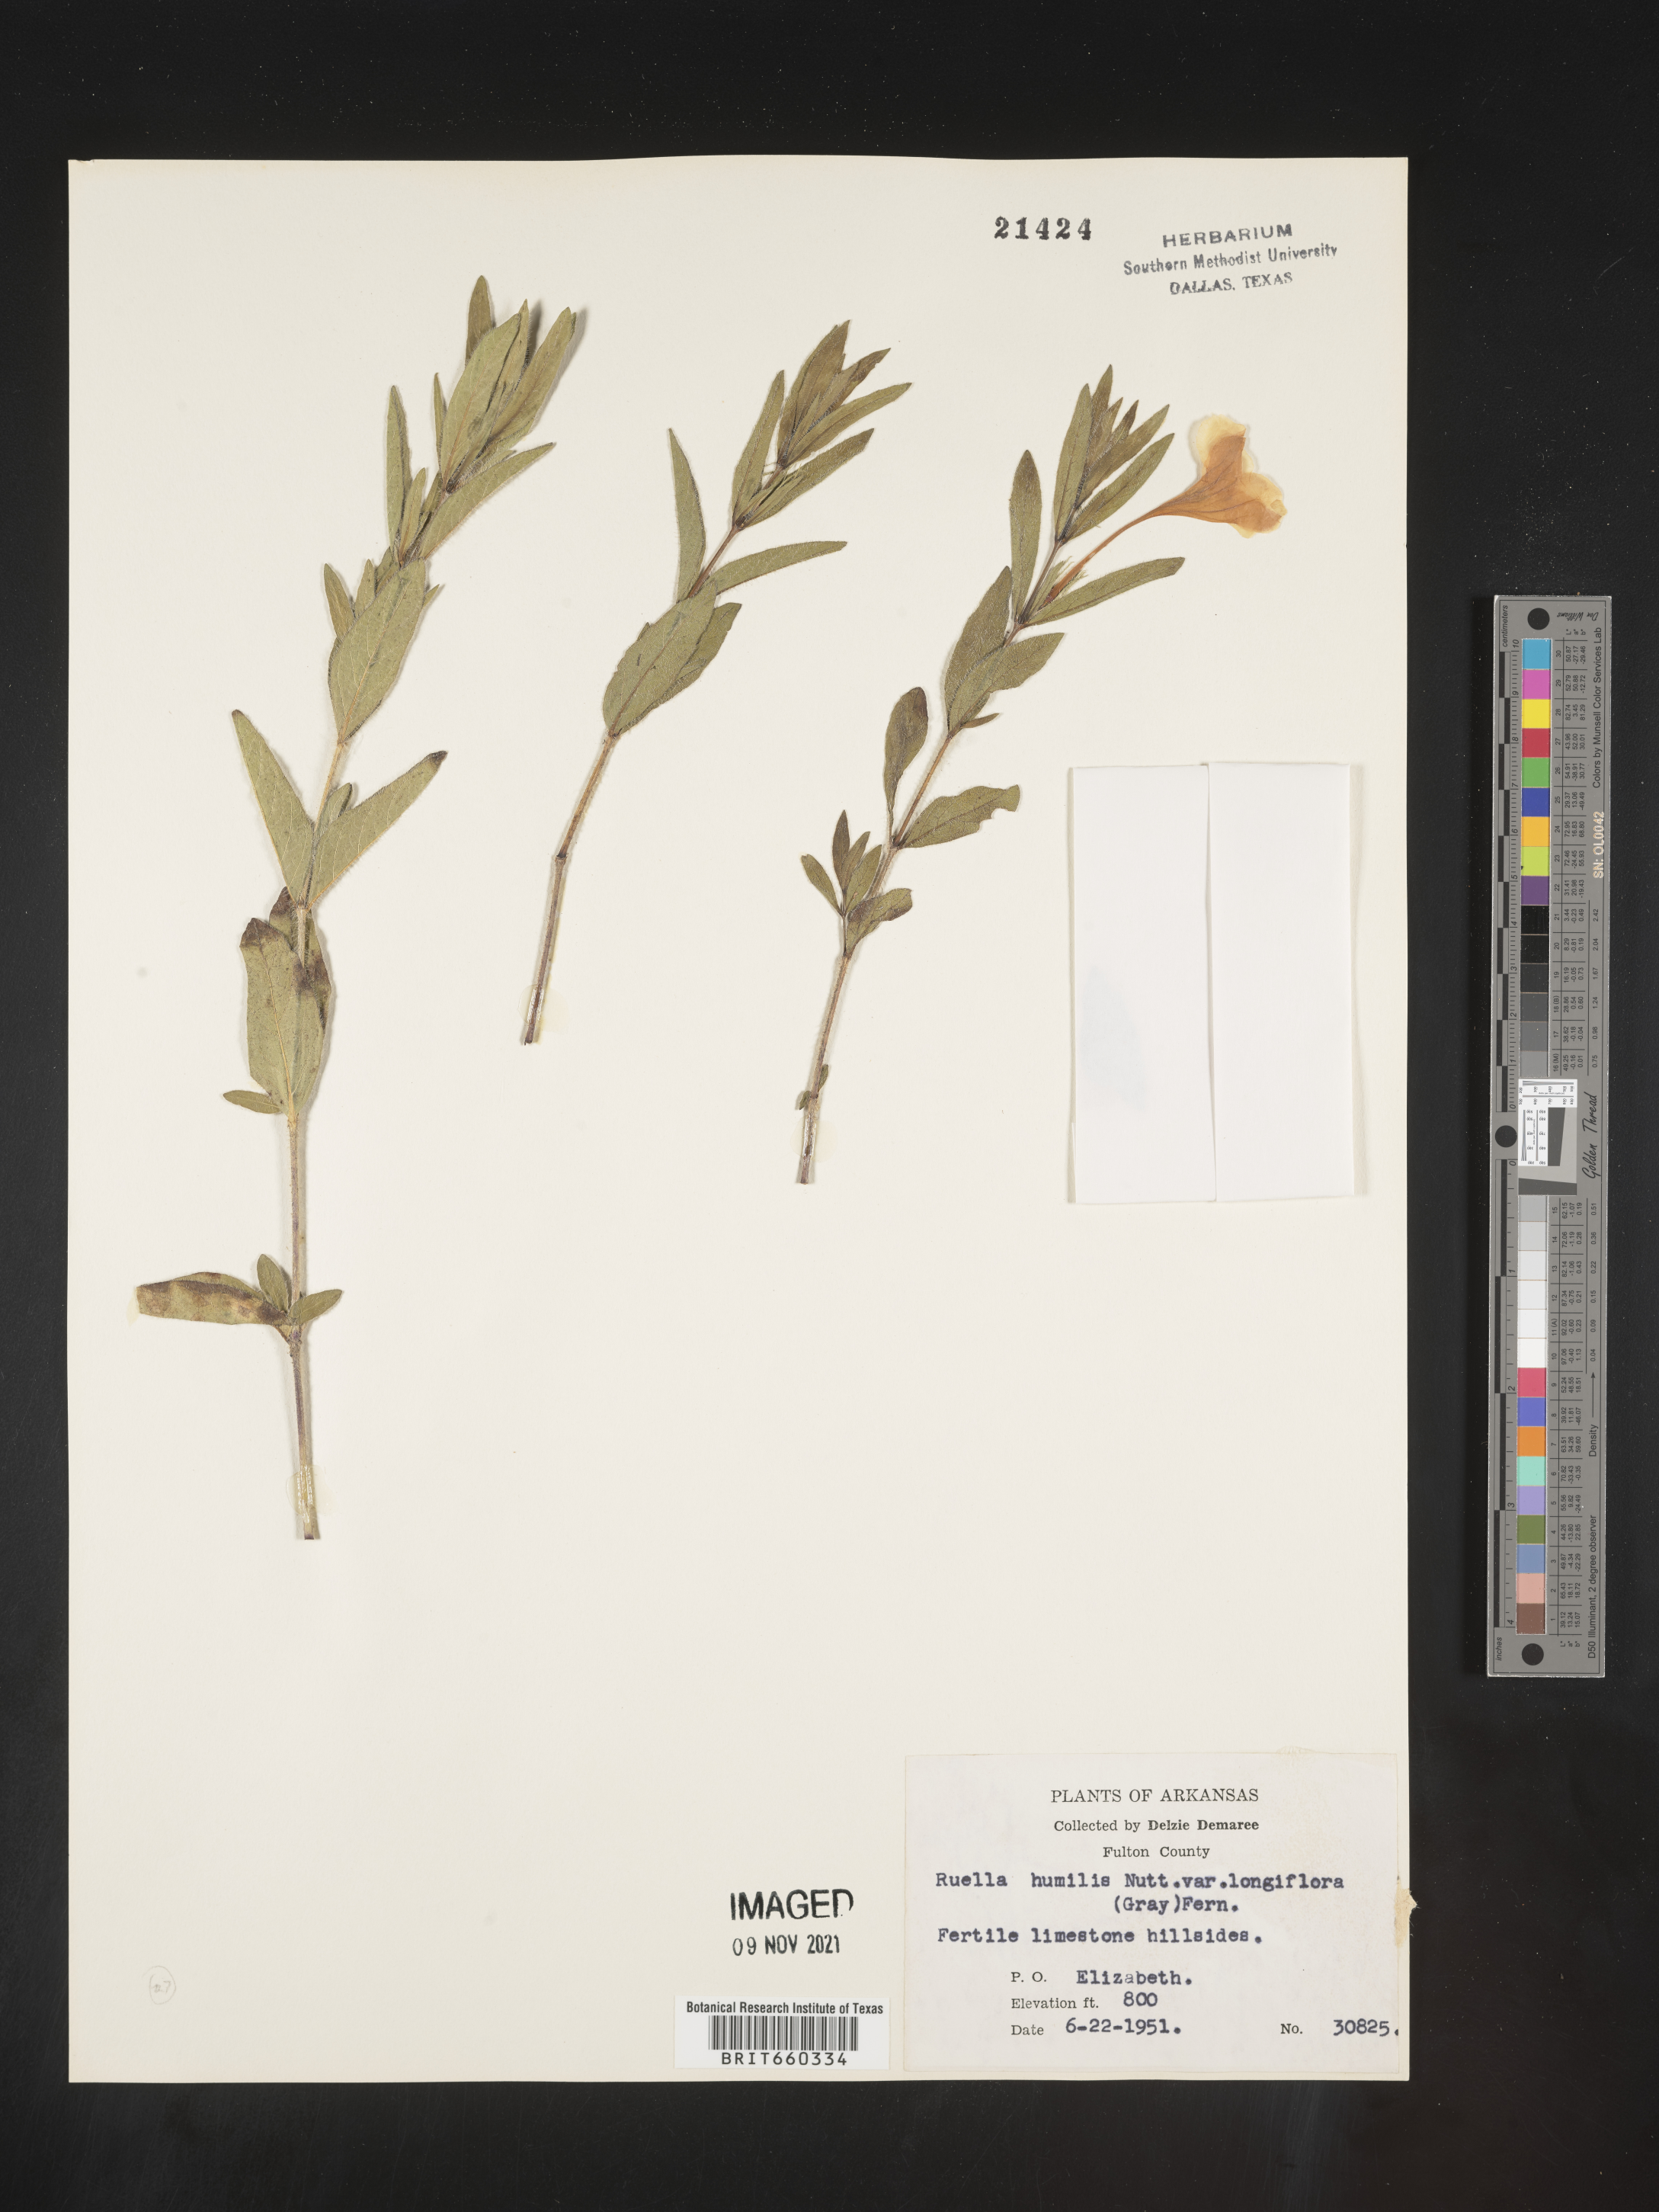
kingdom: Plantae
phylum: Tracheophyta
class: Magnoliopsida
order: Lamiales
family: Acanthaceae
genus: Ruellia
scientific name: Ruellia humilis
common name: Fringe-leaf ruellia
